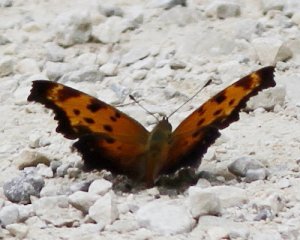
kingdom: Animalia
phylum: Arthropoda
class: Insecta
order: Lepidoptera
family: Nymphalidae
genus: Polygonia
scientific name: Polygonia comma
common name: Eastern Comma
